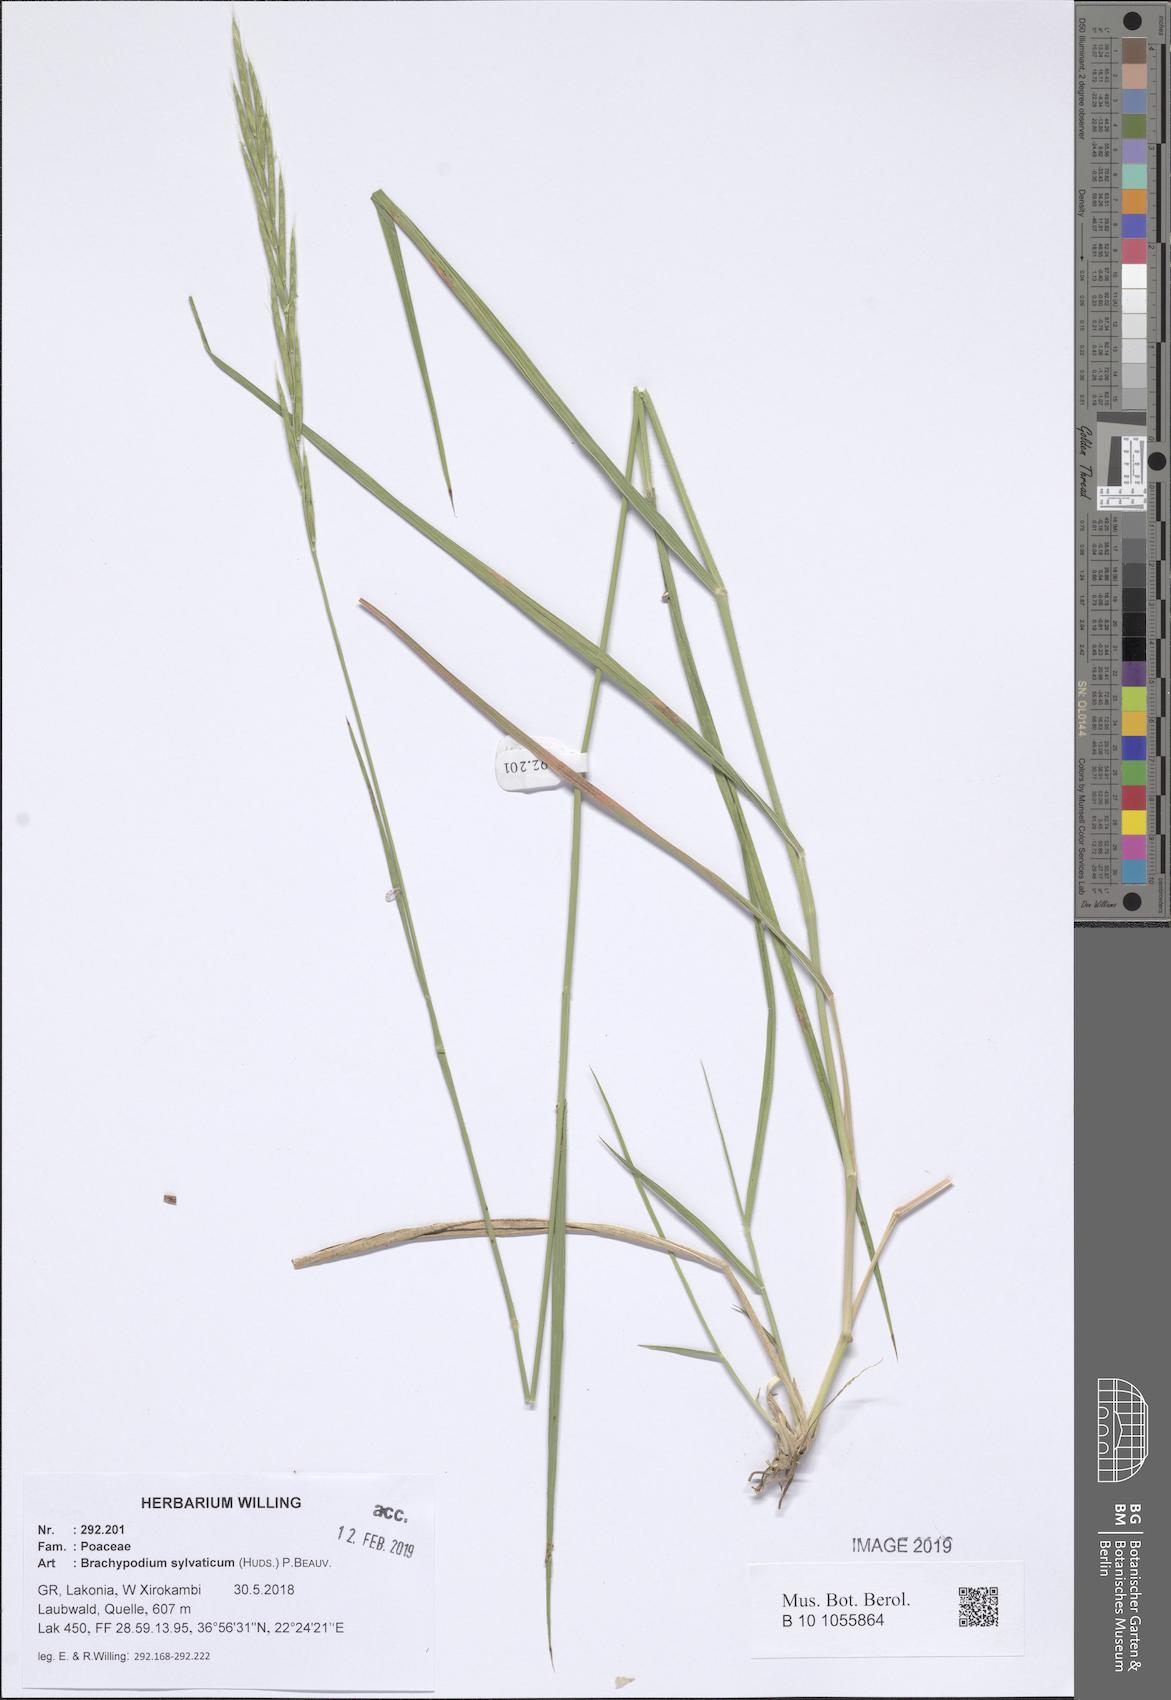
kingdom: Plantae
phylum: Tracheophyta
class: Liliopsida
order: Poales
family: Poaceae
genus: Brachypodium
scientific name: Brachypodium sylvaticum
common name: False-brome
